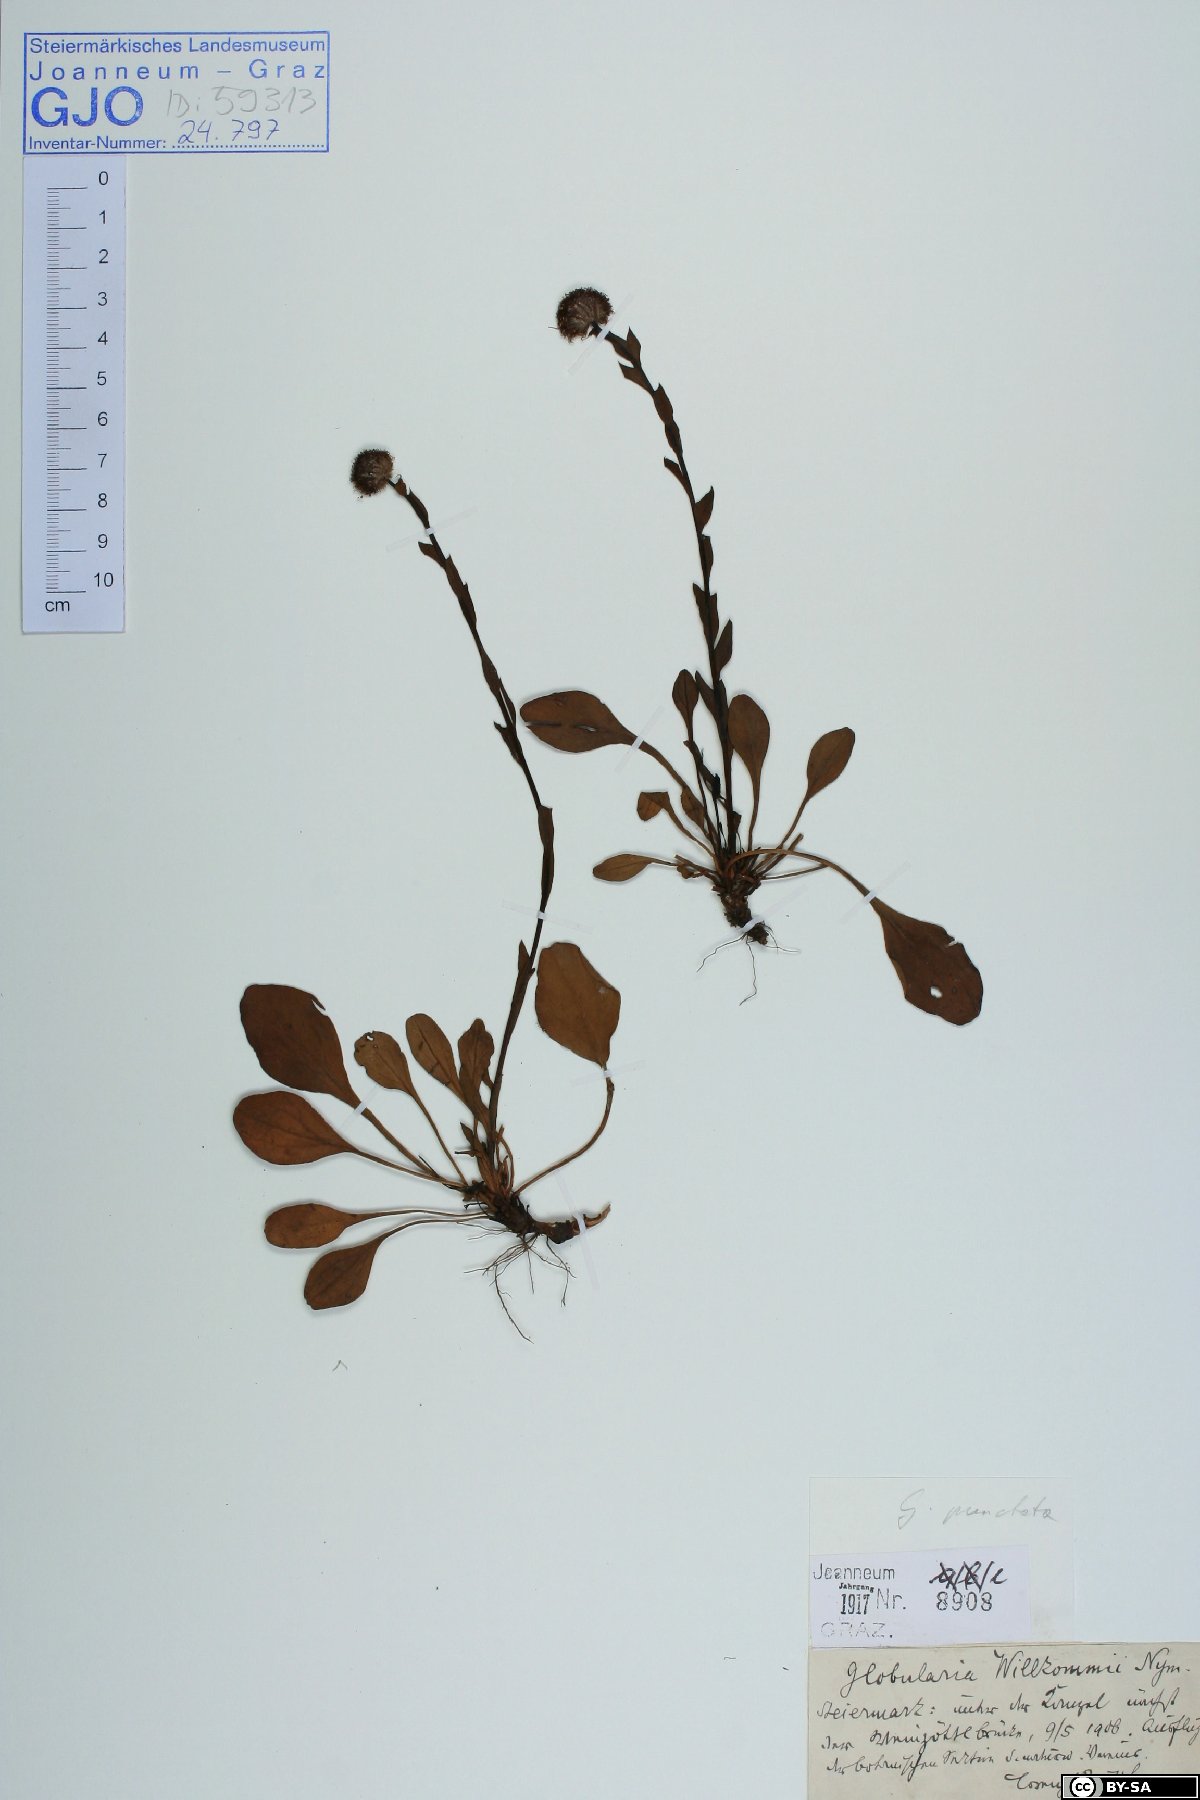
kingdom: Plantae
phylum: Tracheophyta
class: Magnoliopsida
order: Lamiales
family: Plantaginaceae
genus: Globularia
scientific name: Globularia bisnagarica
